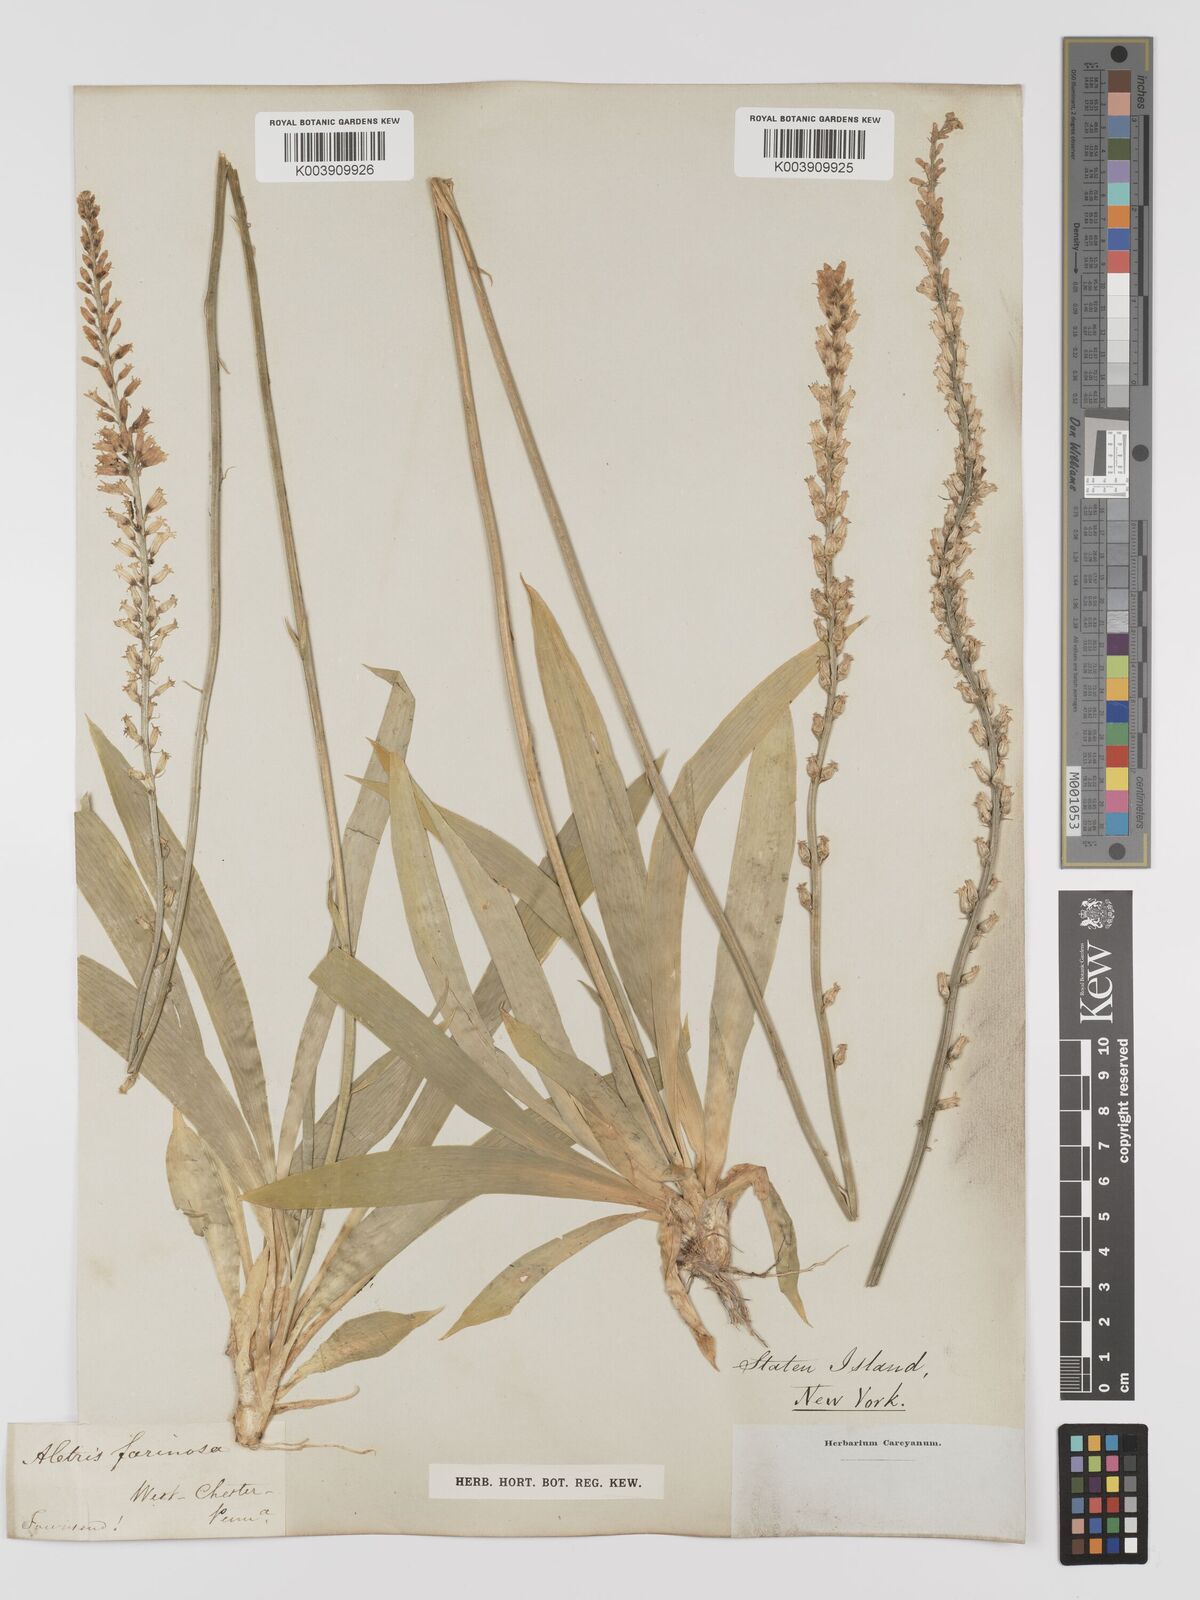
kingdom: Plantae
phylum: Tracheophyta
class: Liliopsida
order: Dioscoreales
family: Nartheciaceae
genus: Aletris
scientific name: Aletris farinosa
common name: Colicroot
